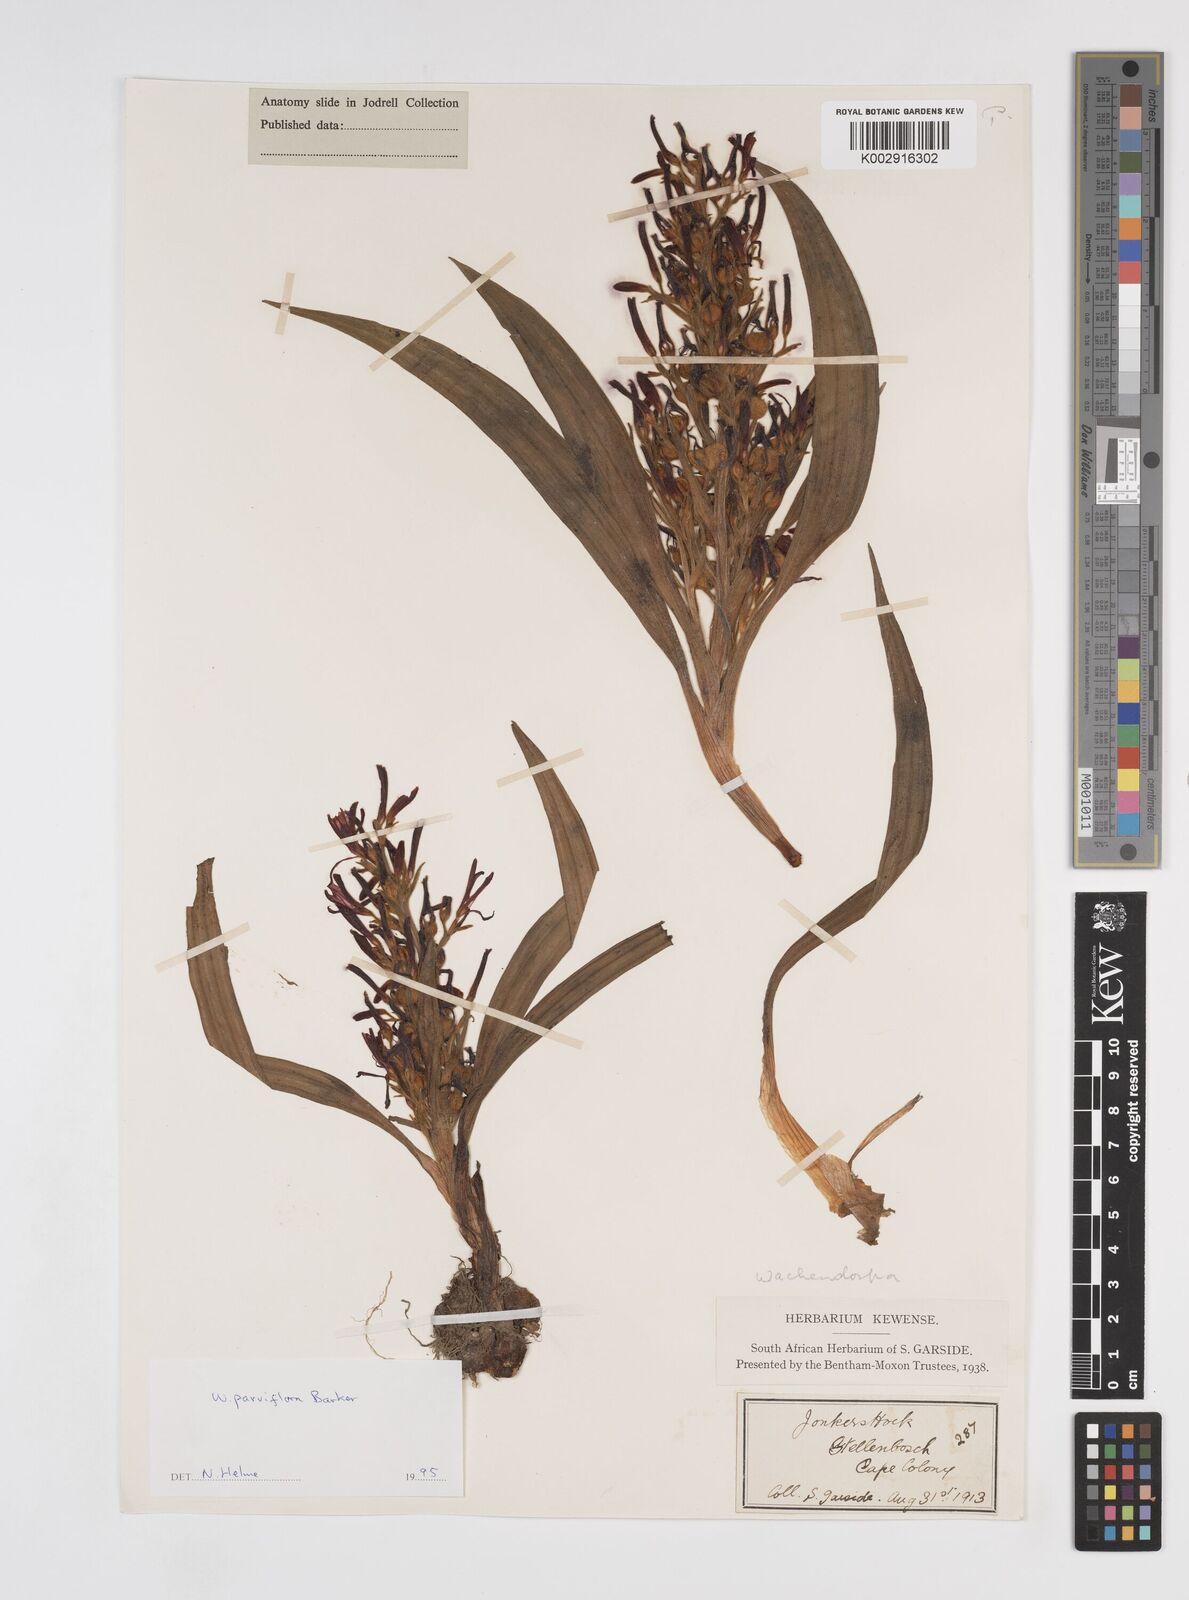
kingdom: Plantae
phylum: Tracheophyta
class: Liliopsida
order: Commelinales
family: Haemodoraceae
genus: Wachendorfia
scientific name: Wachendorfia multiflora
